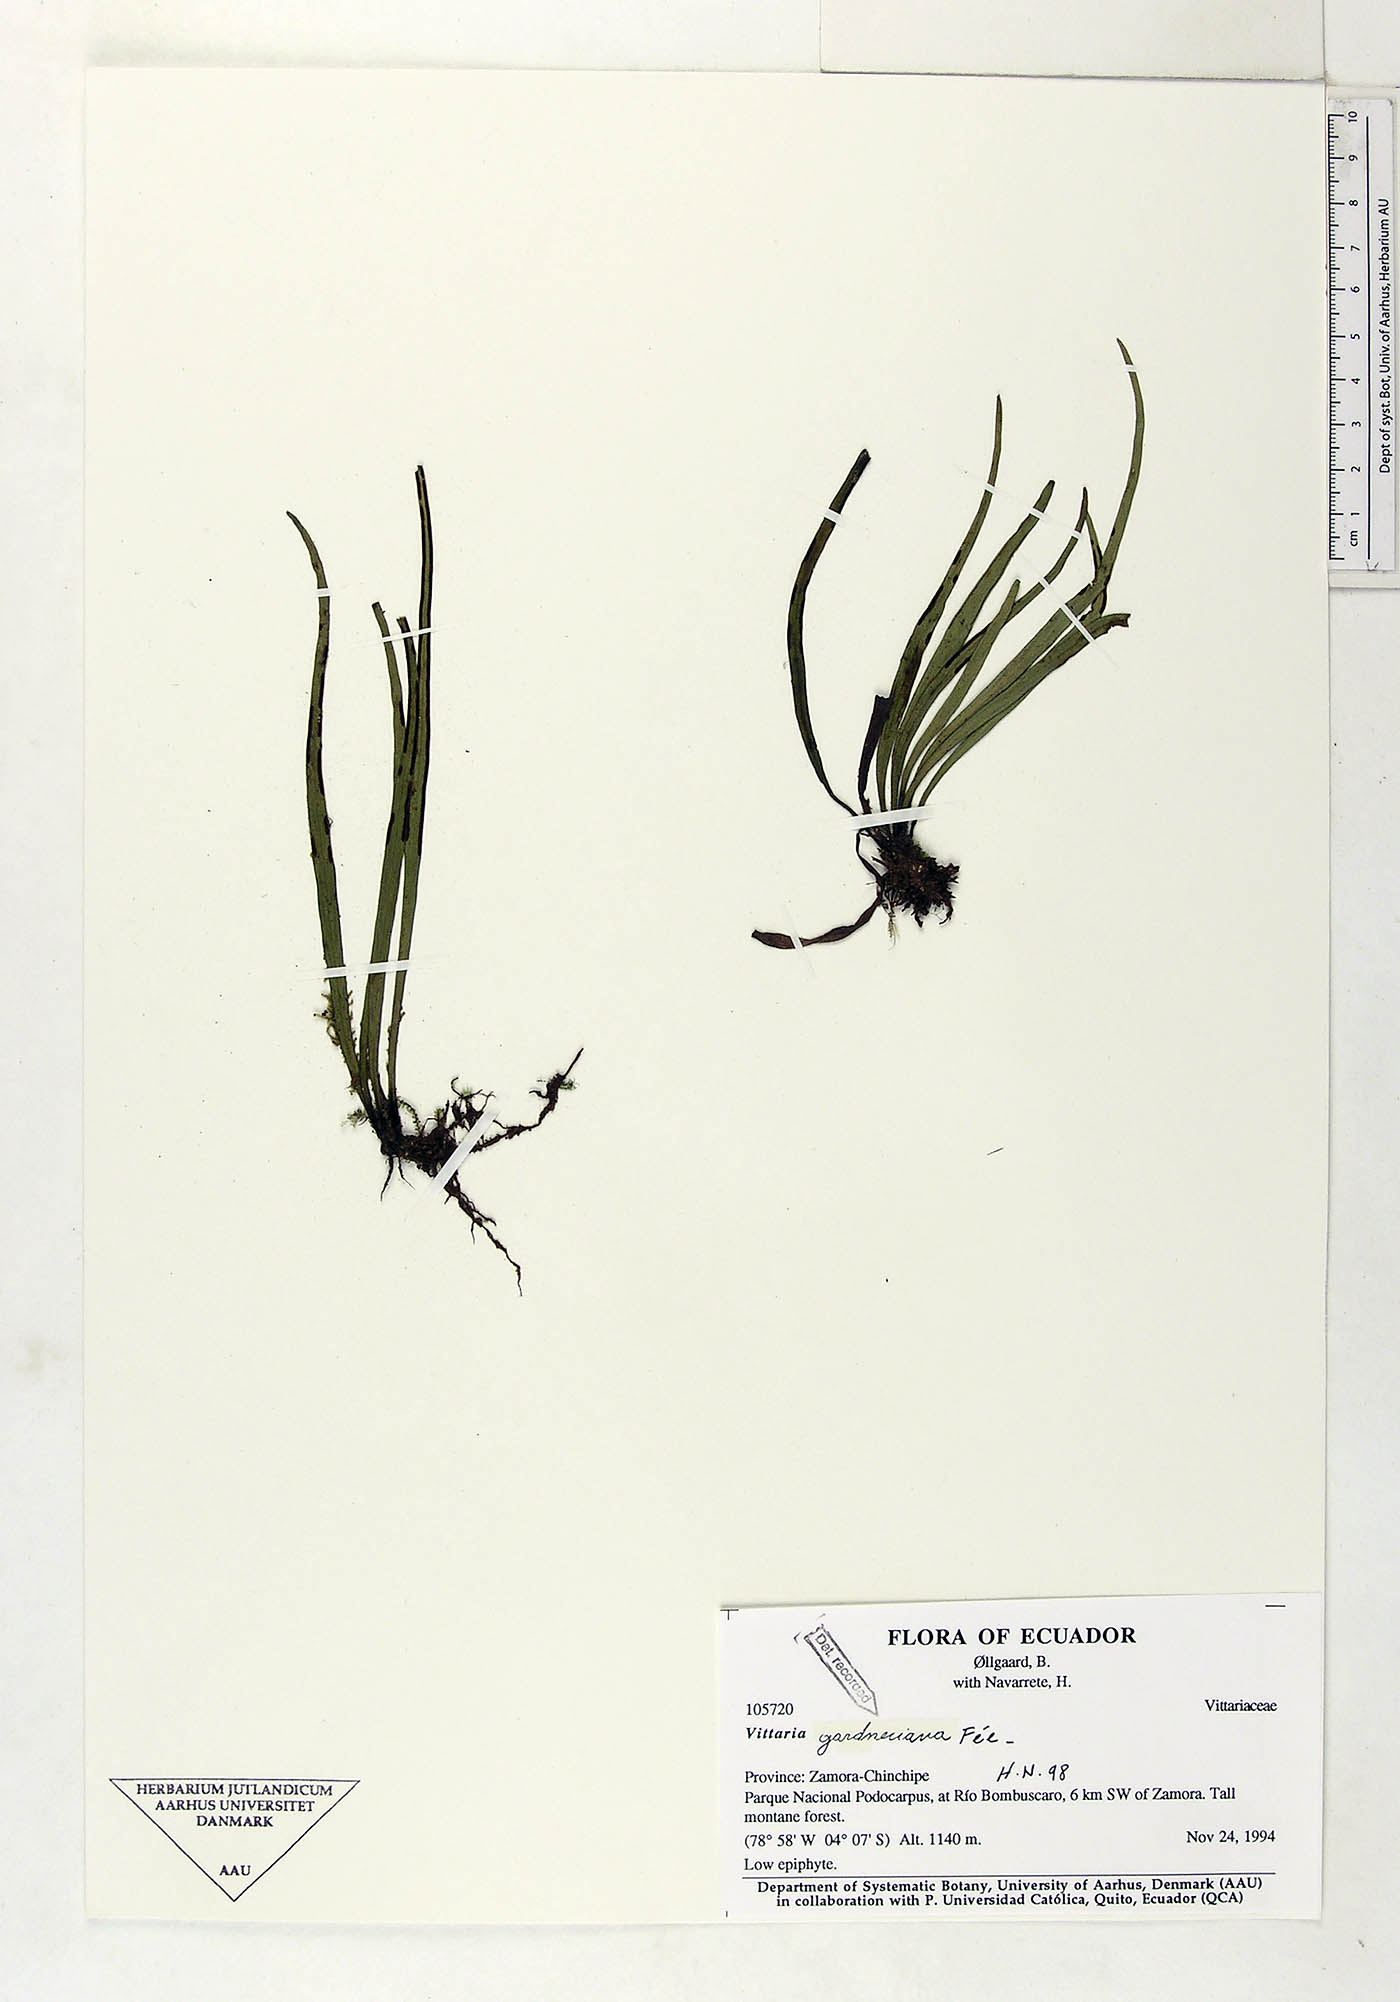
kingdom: Plantae
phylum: Tracheophyta
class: Polypodiopsida
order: Polypodiales
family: Pteridaceae
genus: Radiovittaria
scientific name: Radiovittaria gardneriana
